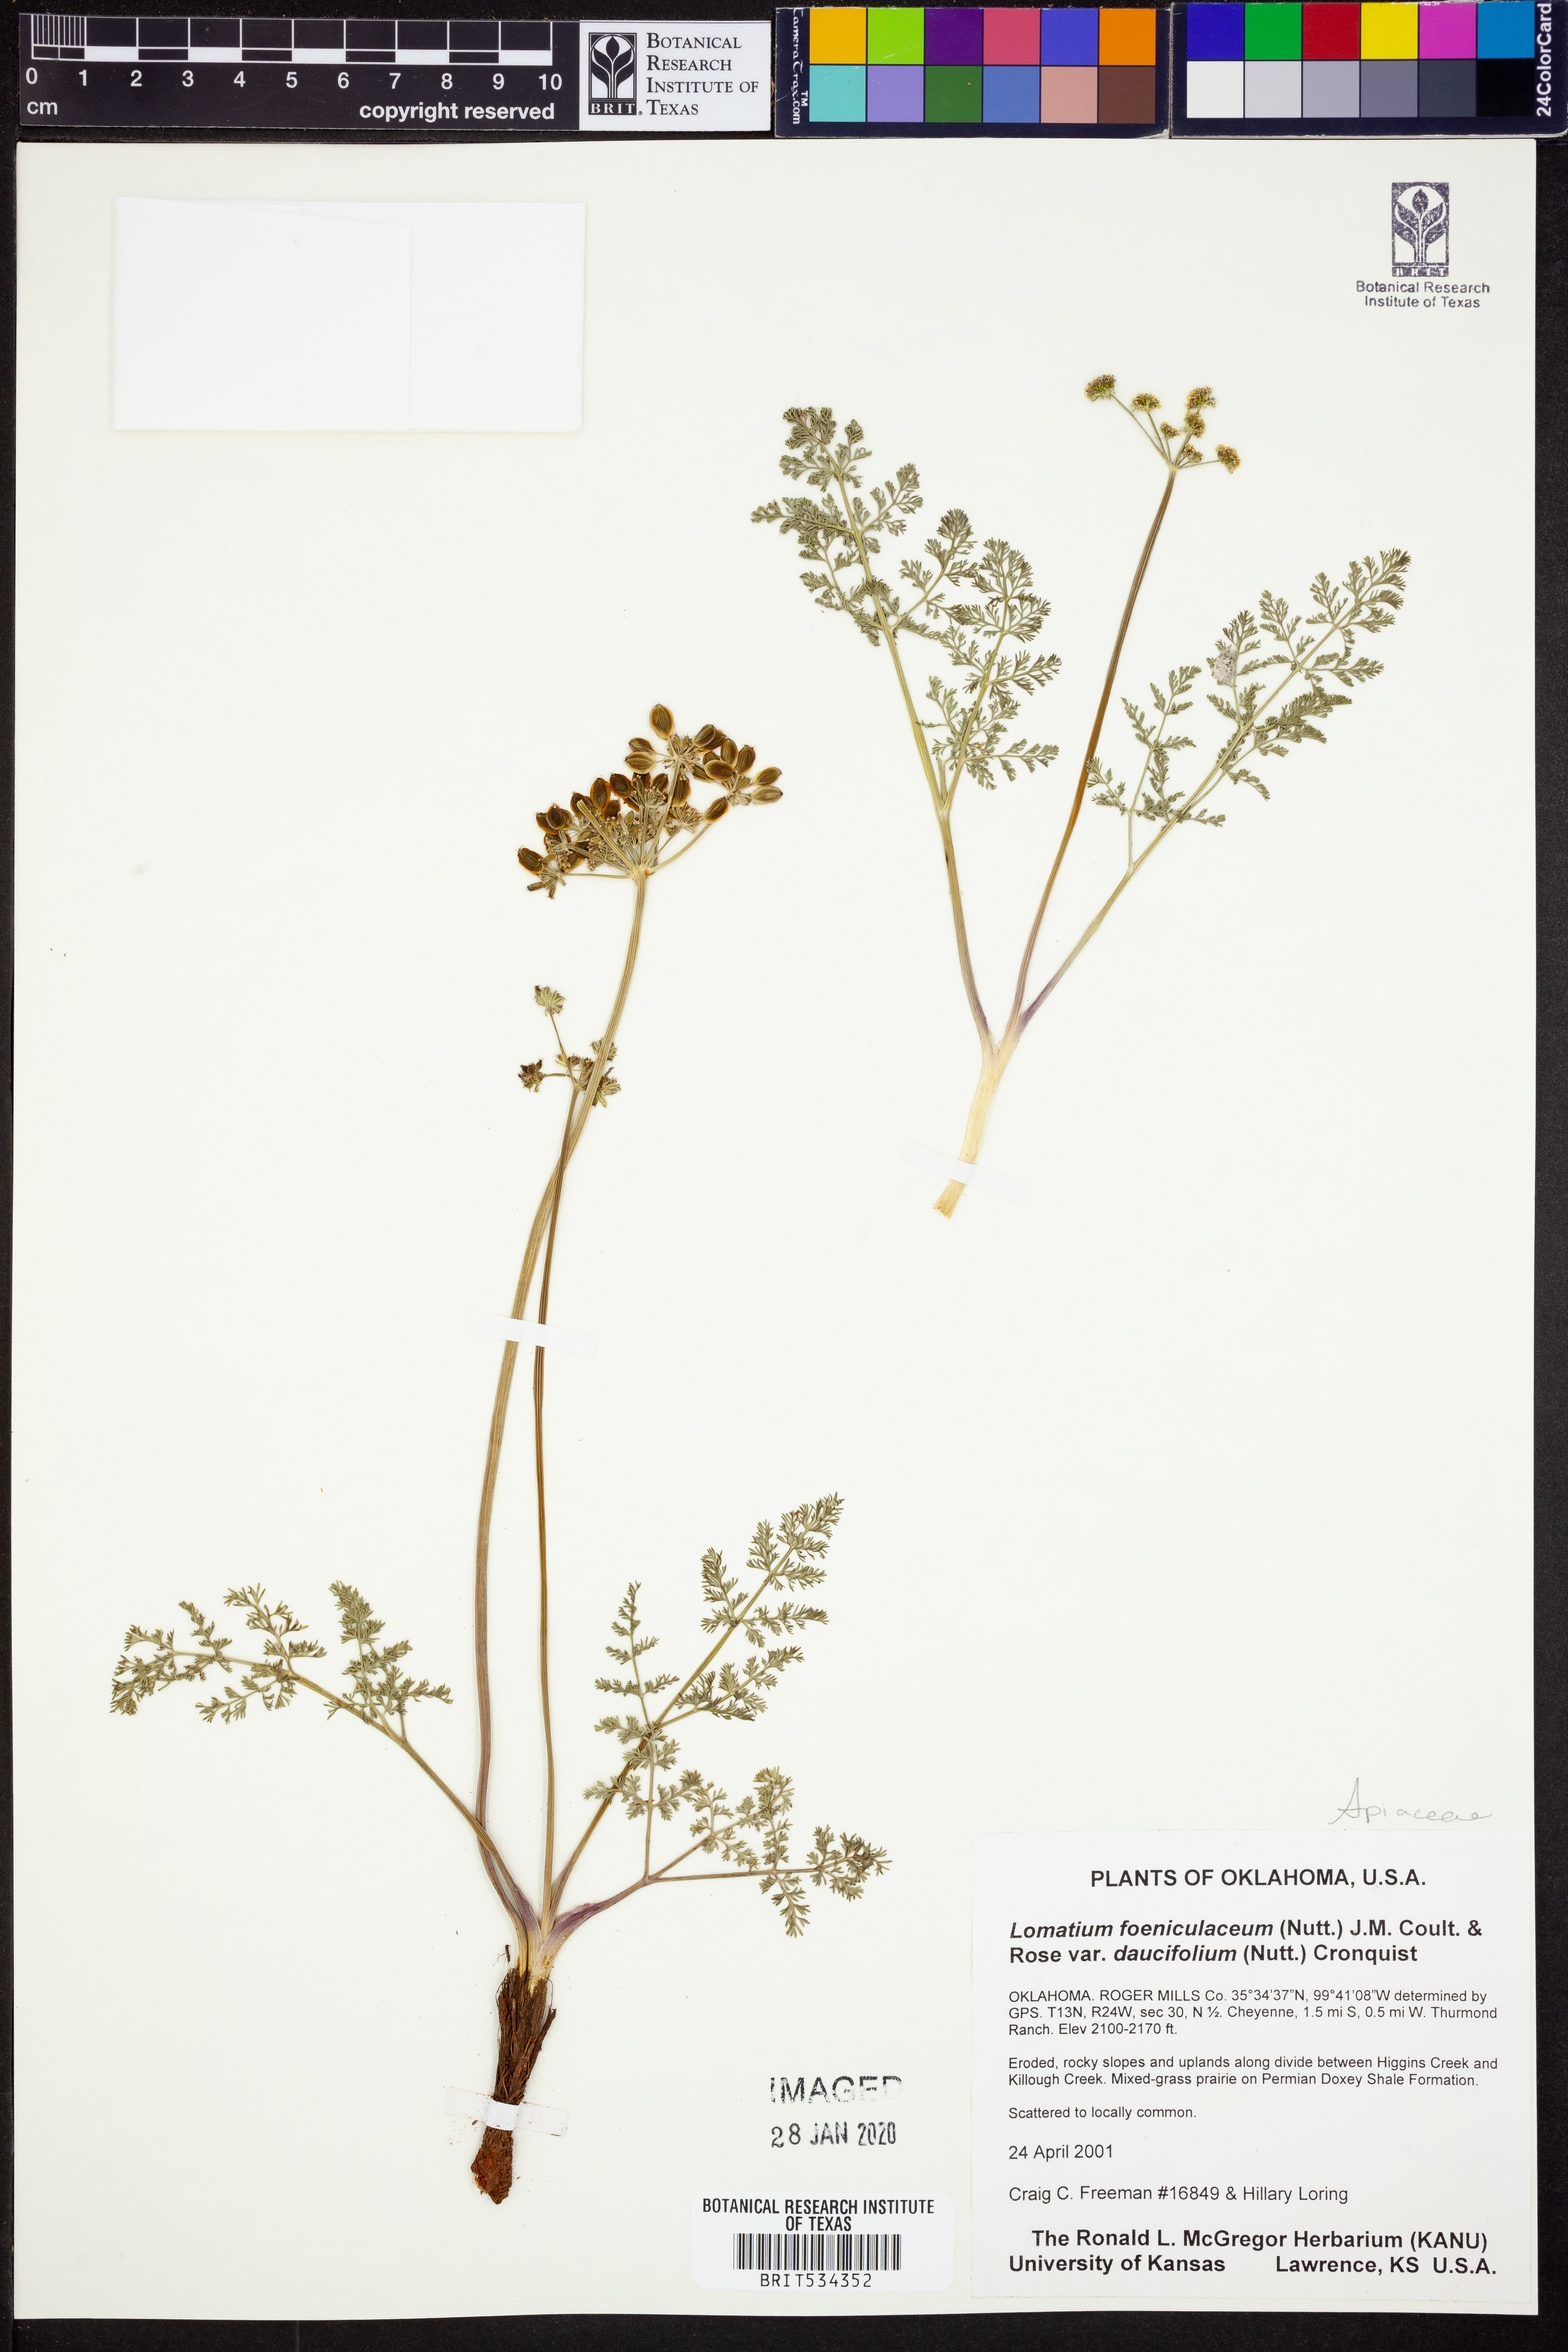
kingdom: Plantae
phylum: Tracheophyta
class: Magnoliopsida
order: Apiales
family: Apiaceae
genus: Lomatium
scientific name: Lomatium foeniculaceum
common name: Desert-parsley
